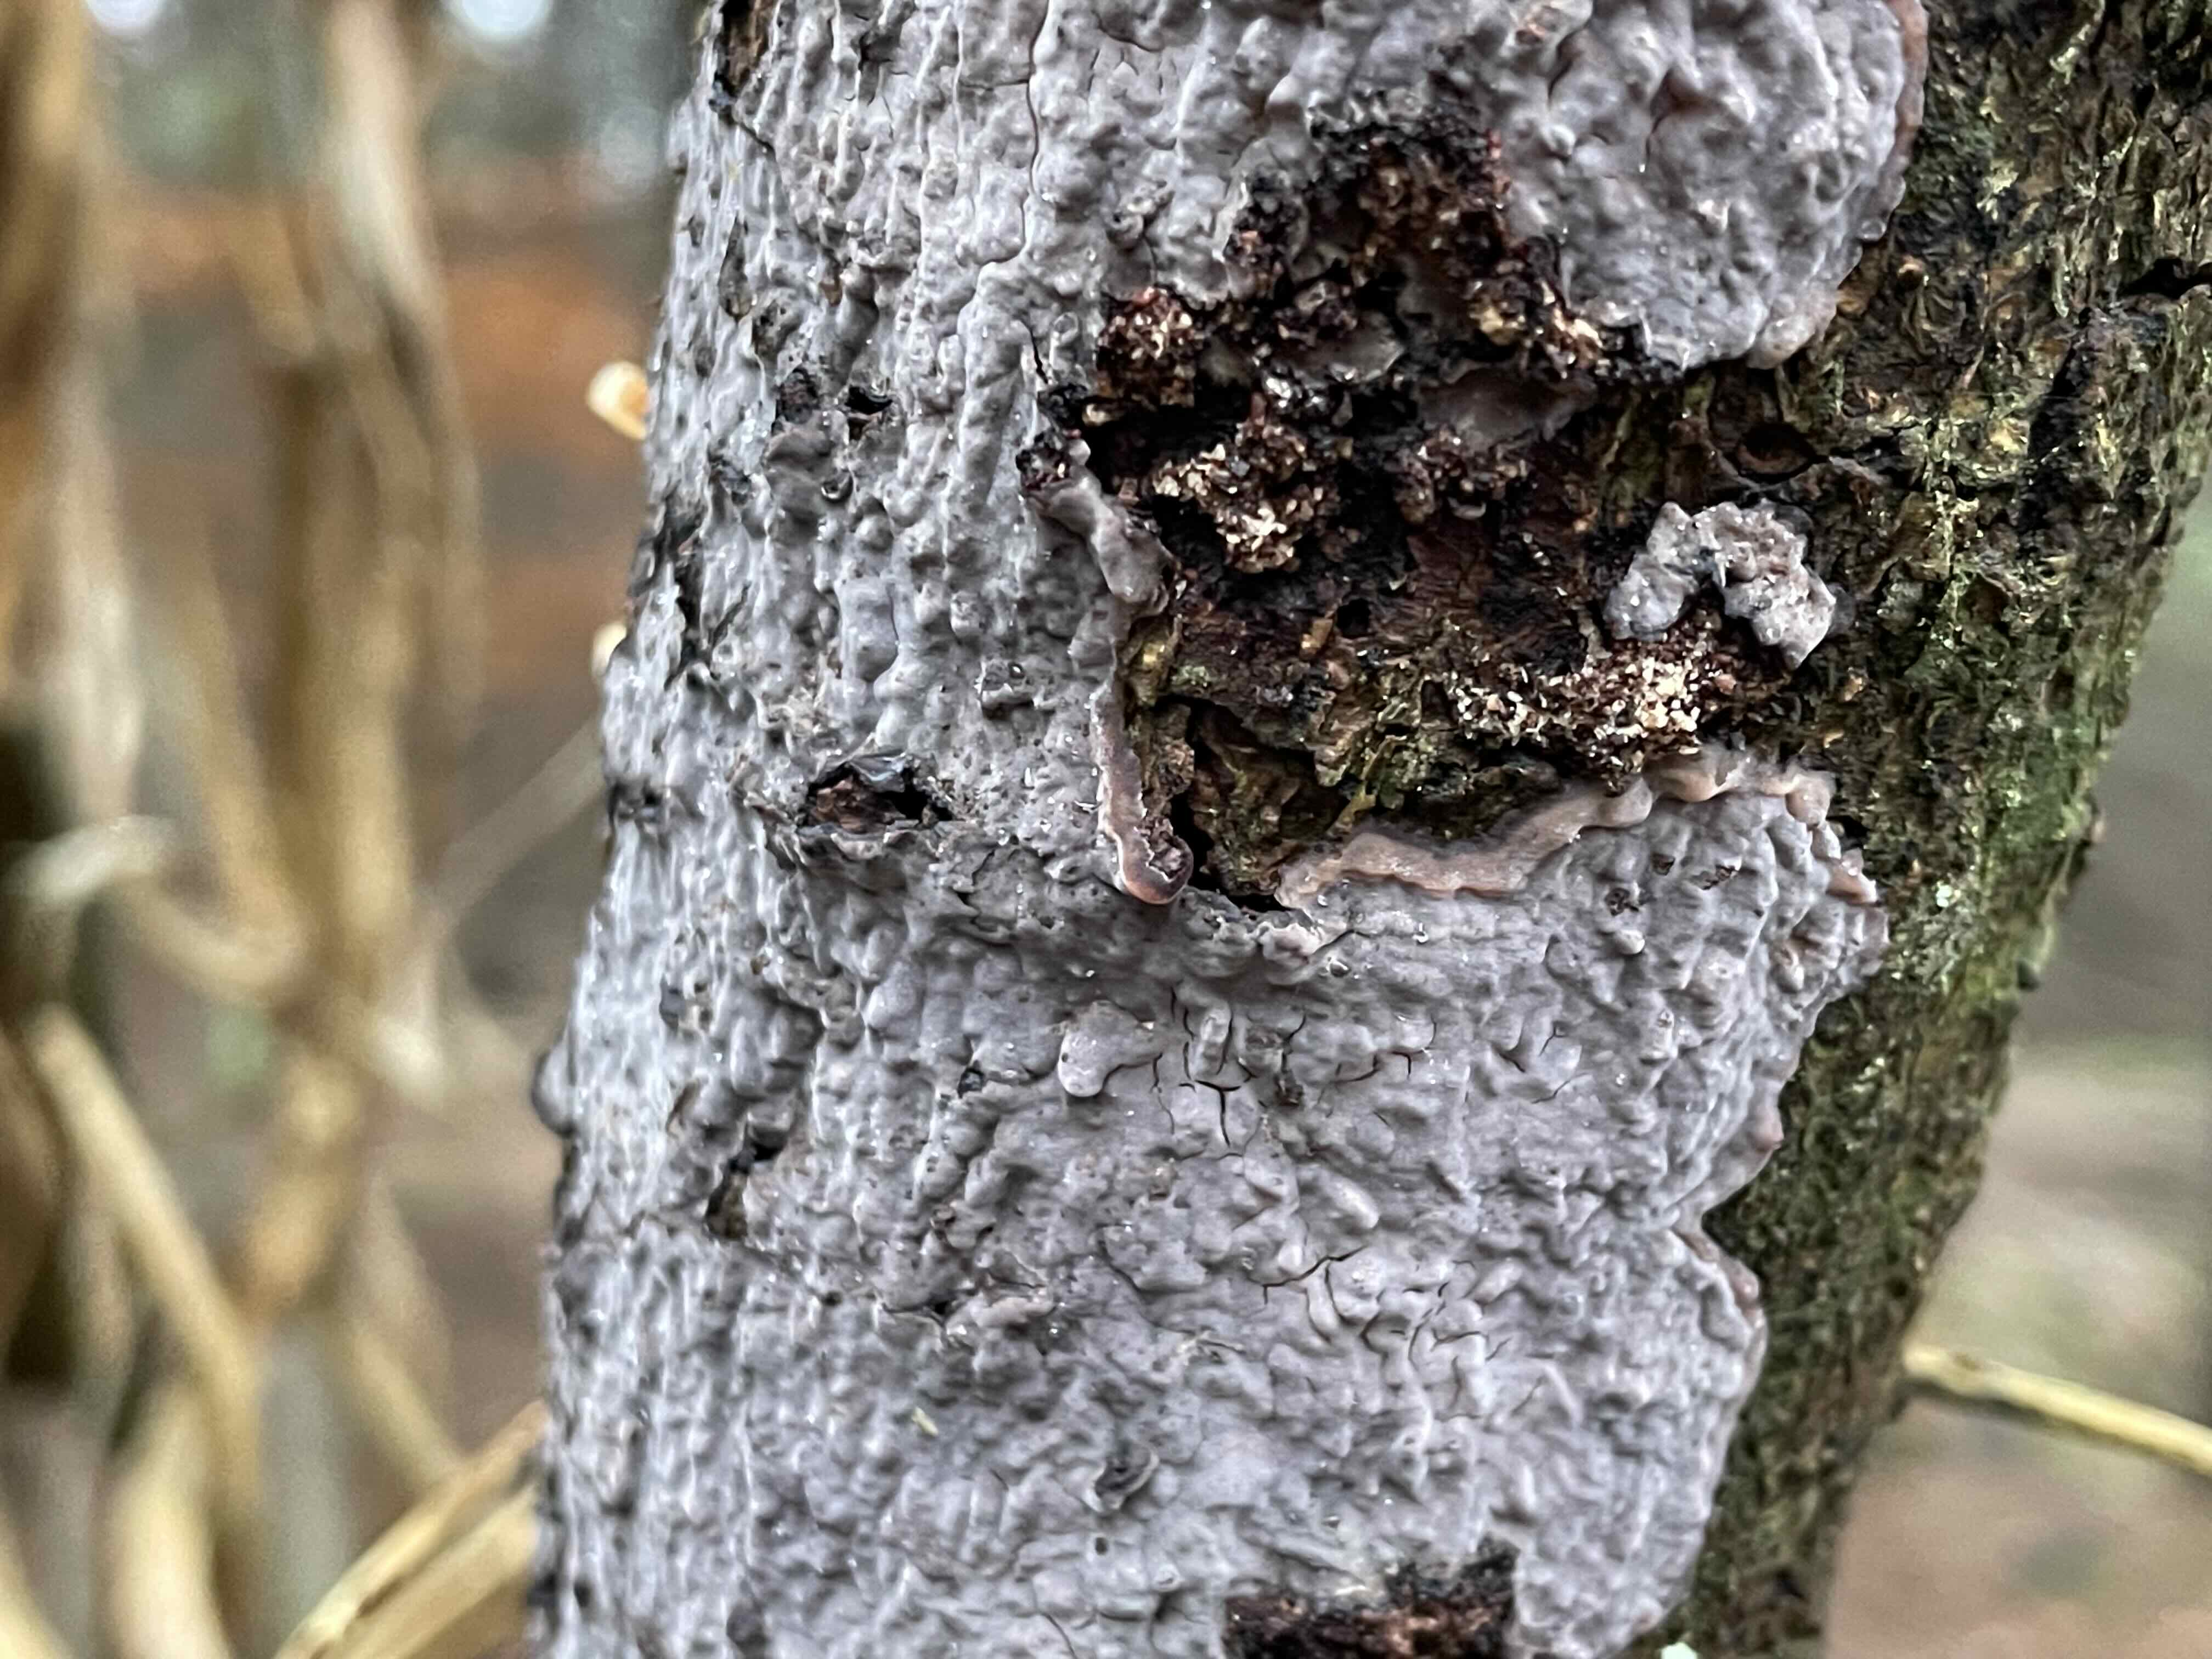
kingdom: Fungi
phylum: Basidiomycota
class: Agaricomycetes
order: Russulales
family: Peniophoraceae
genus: Peniophora
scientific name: Peniophora
